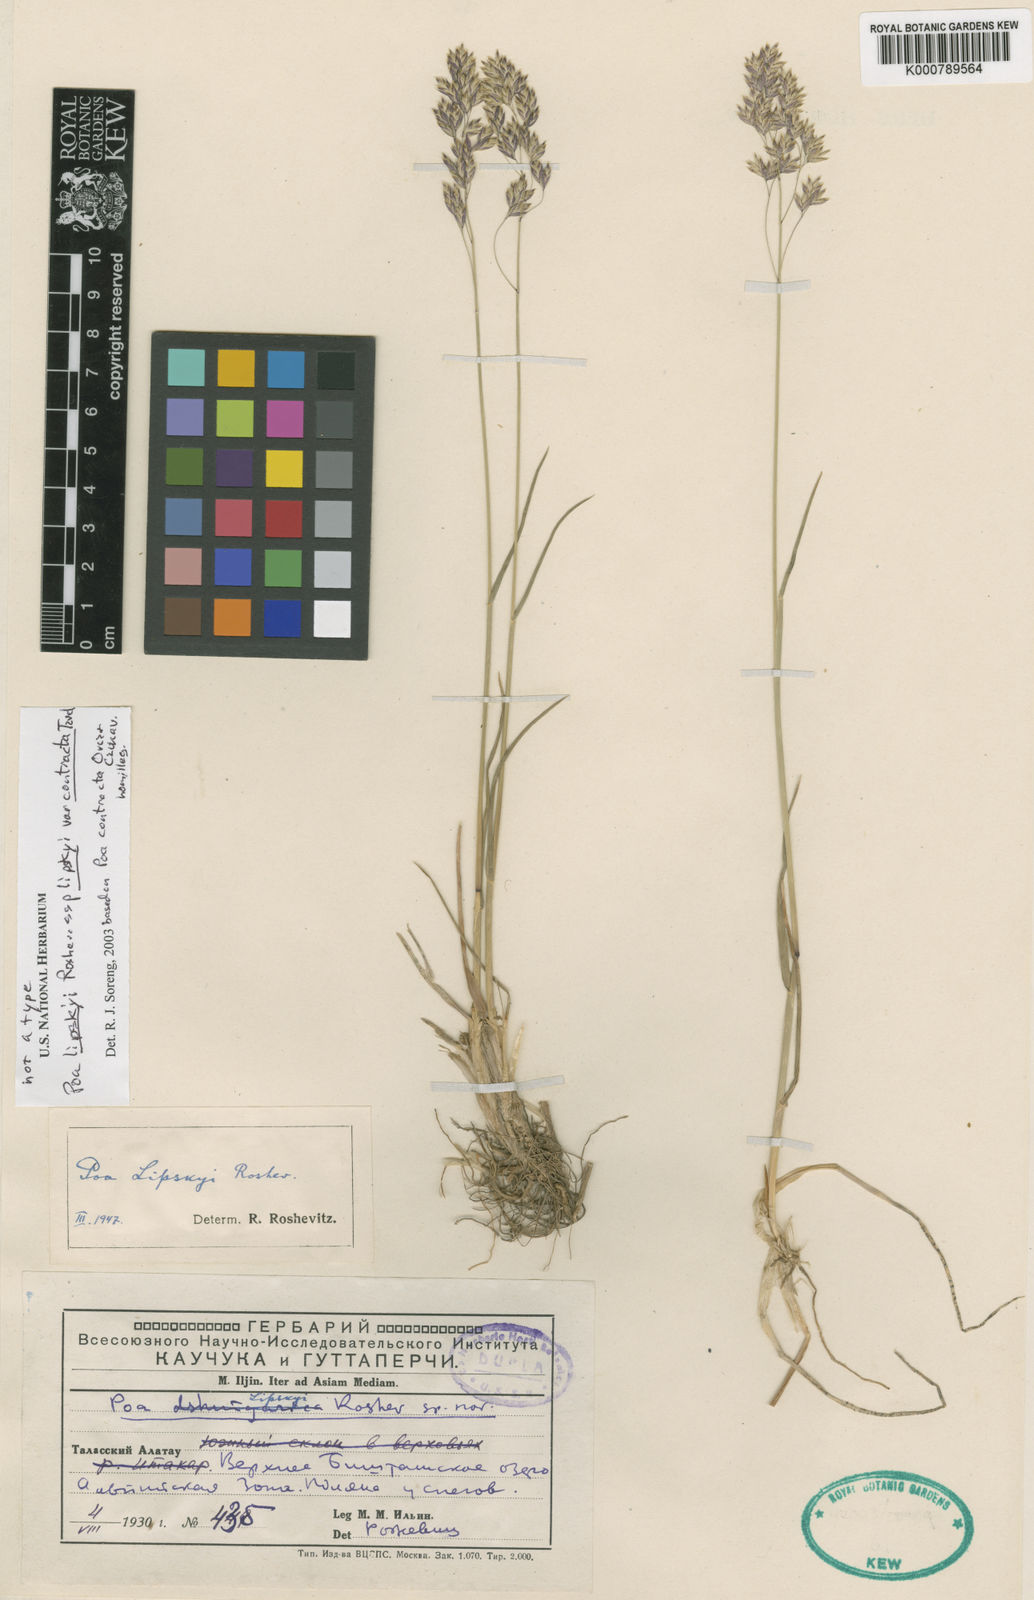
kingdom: Plantae
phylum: Tracheophyta
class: Liliopsida
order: Poales
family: Poaceae
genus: Poa
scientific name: Poa lipskyi
